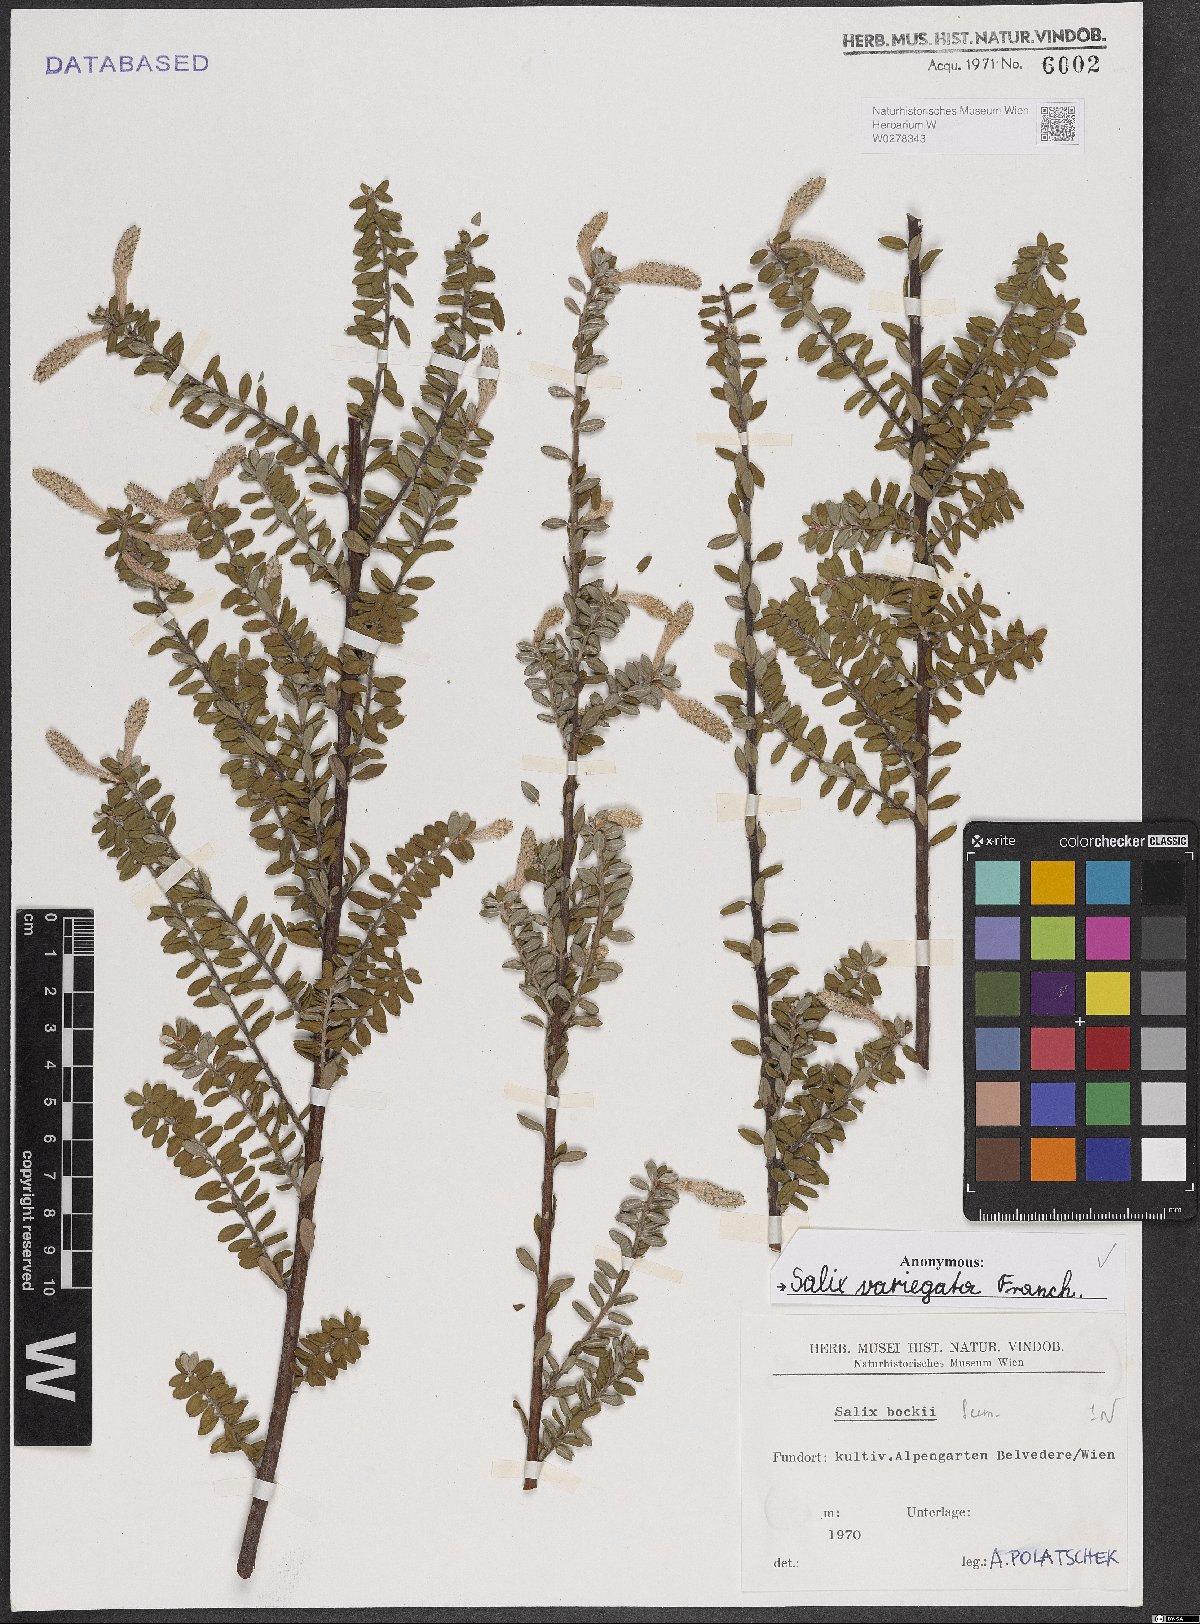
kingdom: Plantae
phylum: Tracheophyta
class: Magnoliopsida
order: Malpighiales
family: Salicaceae
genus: Salix
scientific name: Salix variegata
